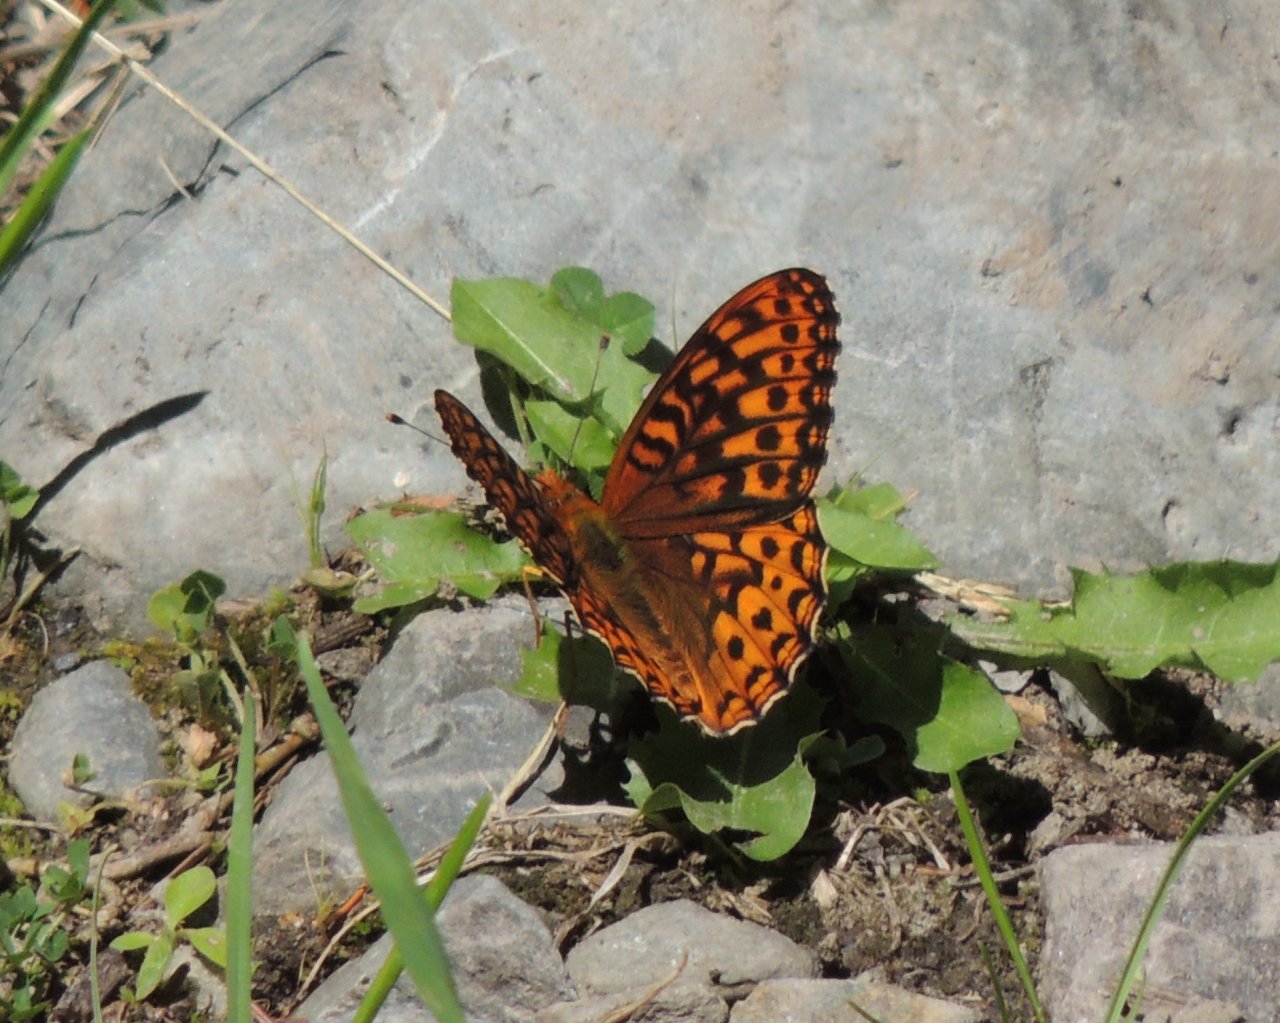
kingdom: Animalia
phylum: Arthropoda
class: Insecta
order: Lepidoptera
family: Nymphalidae
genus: Speyeria
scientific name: Speyeria hydaspe
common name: Hydaspe Fritillary
